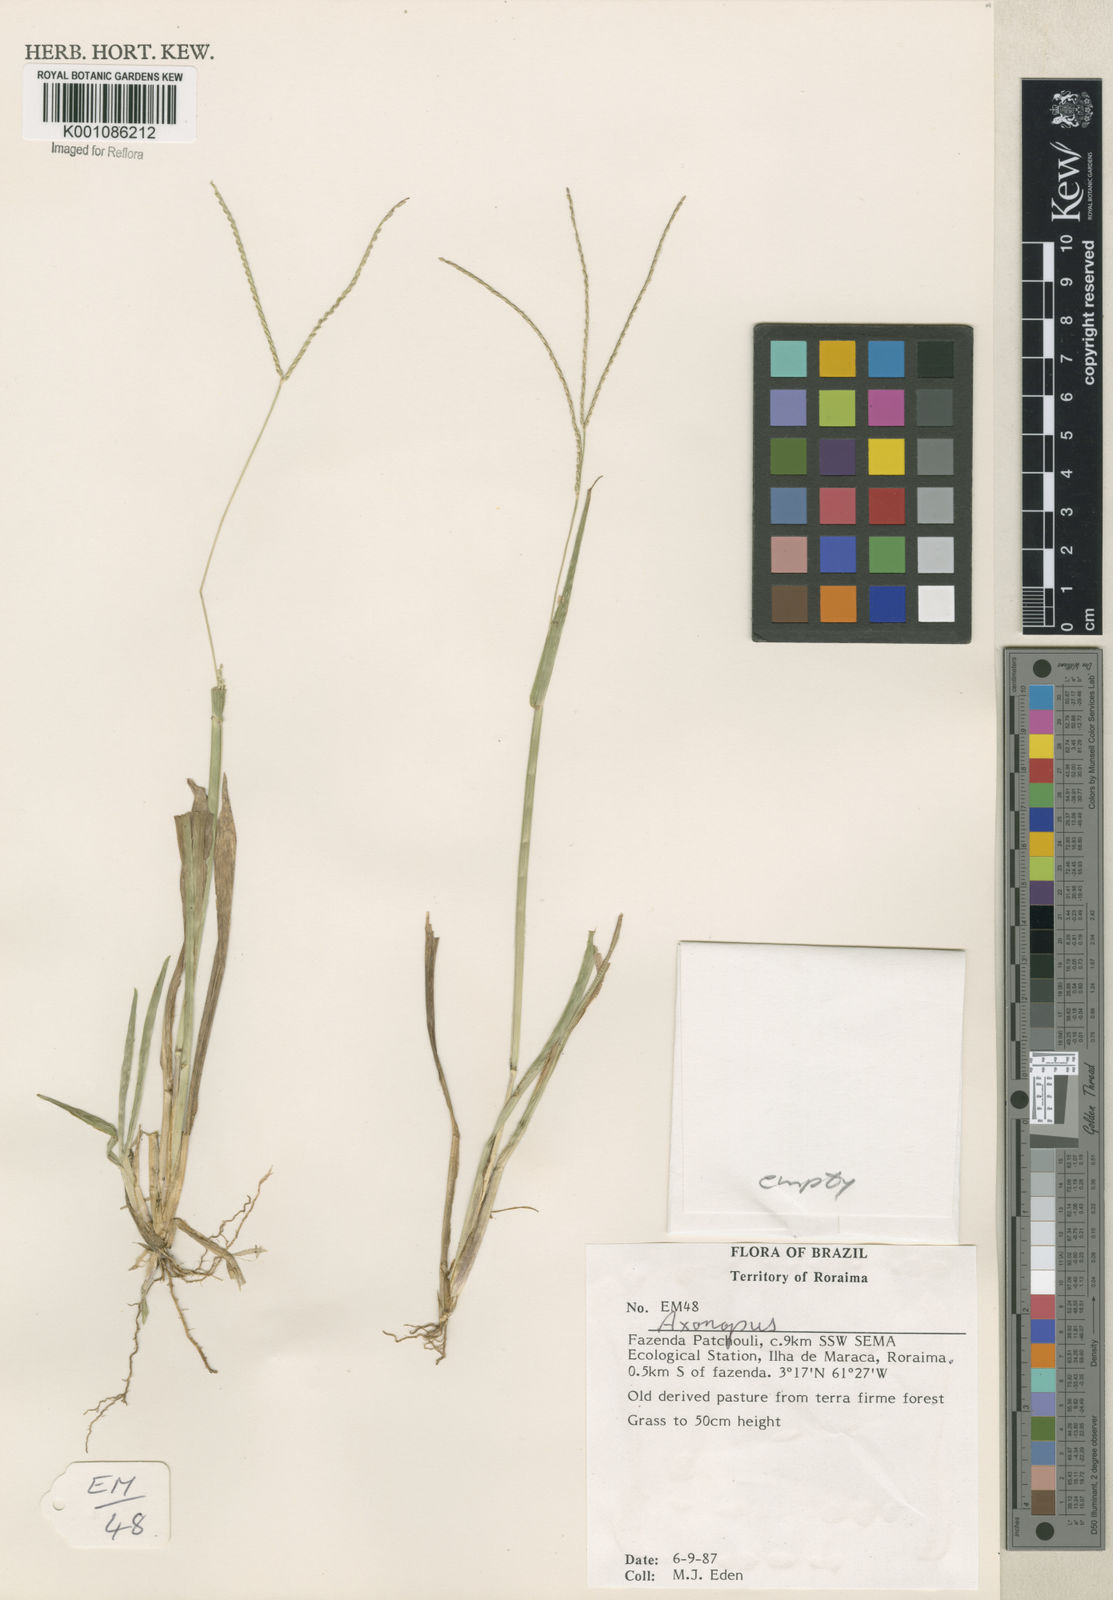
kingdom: Plantae
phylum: Tracheophyta
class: Liliopsida
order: Poales
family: Poaceae
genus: Axonopus
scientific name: Axonopus
